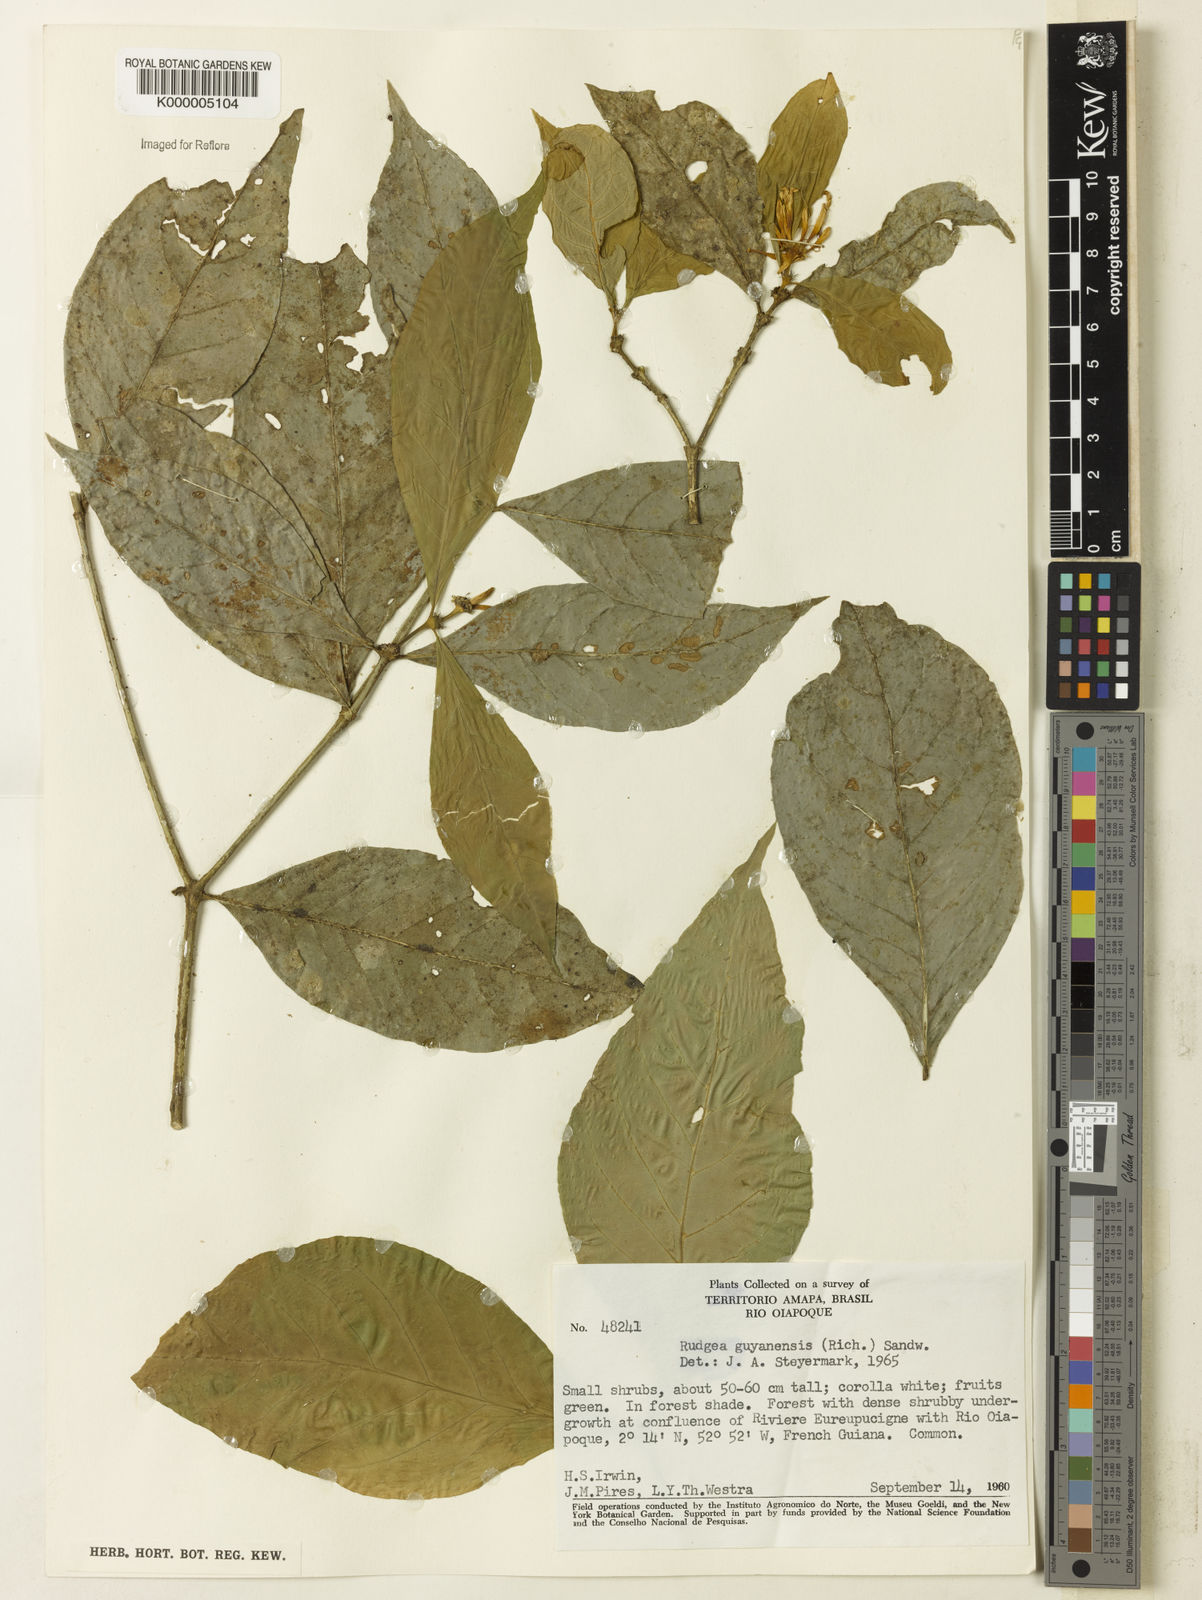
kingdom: Plantae
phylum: Tracheophyta
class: Magnoliopsida
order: Gentianales
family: Rubiaceae
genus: Rudgea
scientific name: Rudgea guianensis
